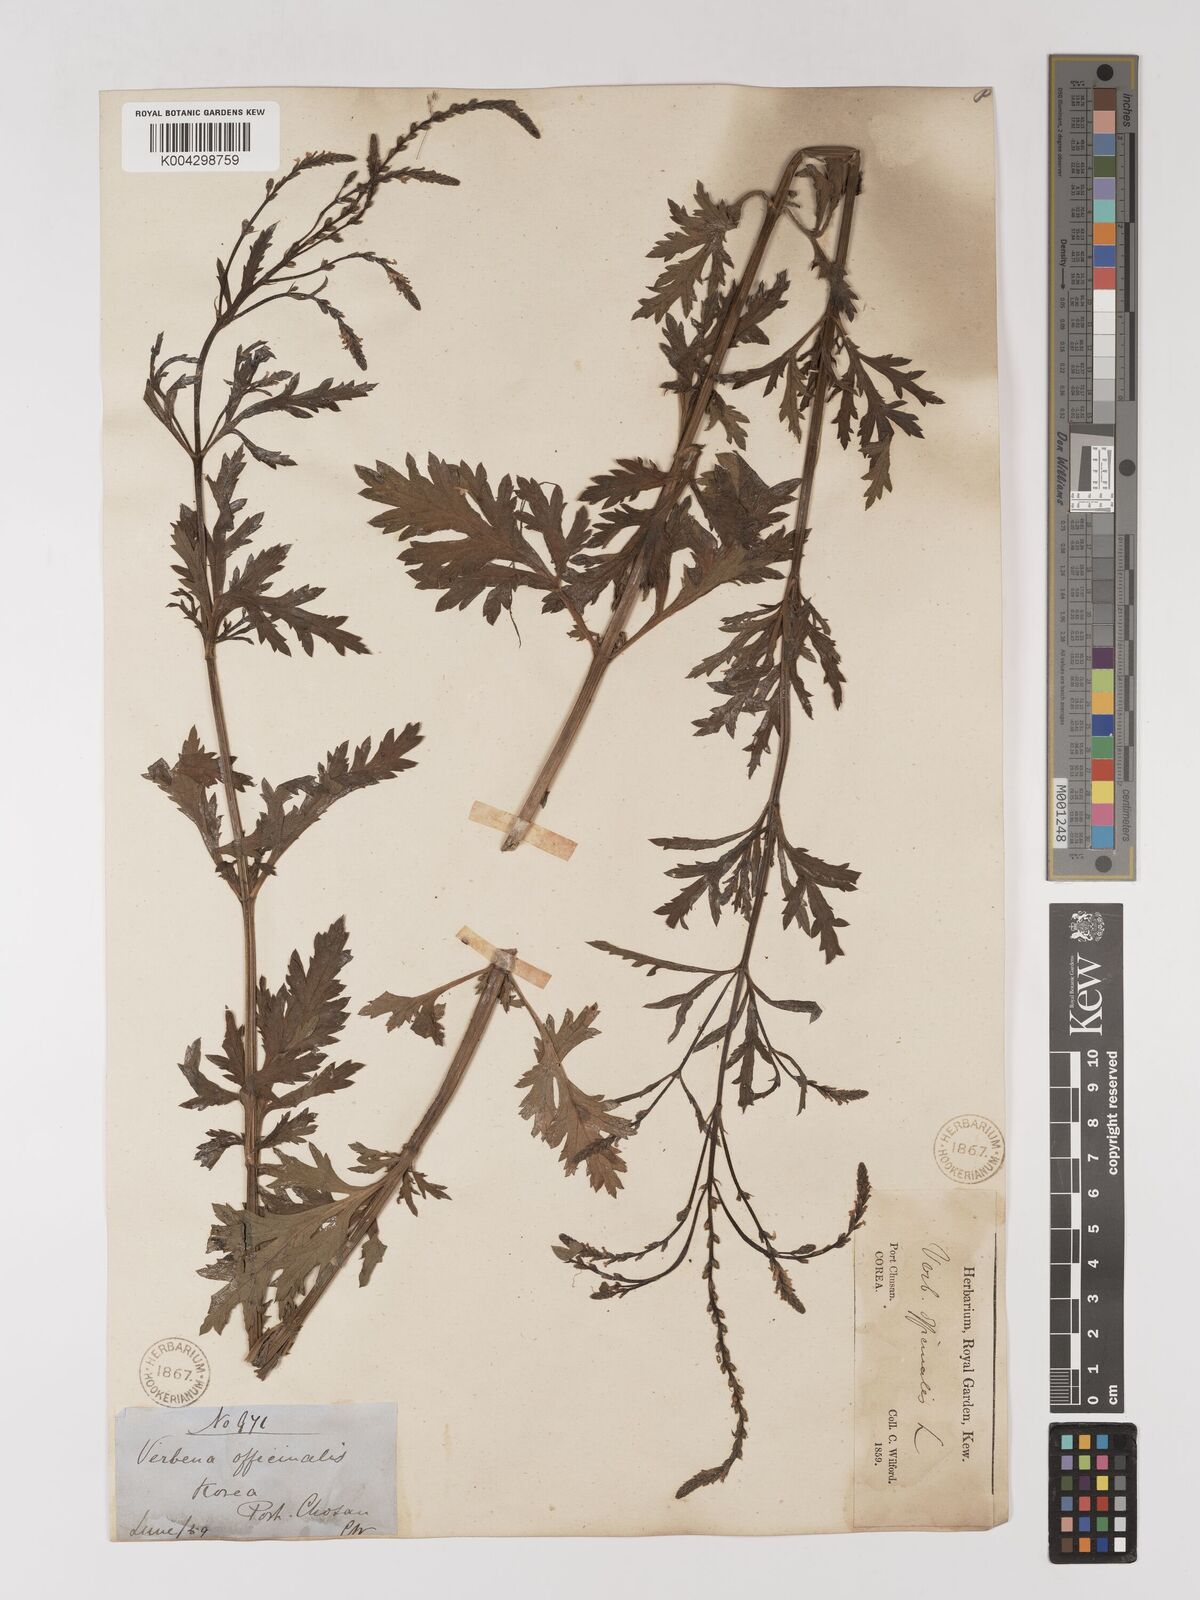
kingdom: Plantae
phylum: Tracheophyta
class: Magnoliopsida
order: Lamiales
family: Verbenaceae
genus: Verbena
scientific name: Verbena officinalis
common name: Vervain
